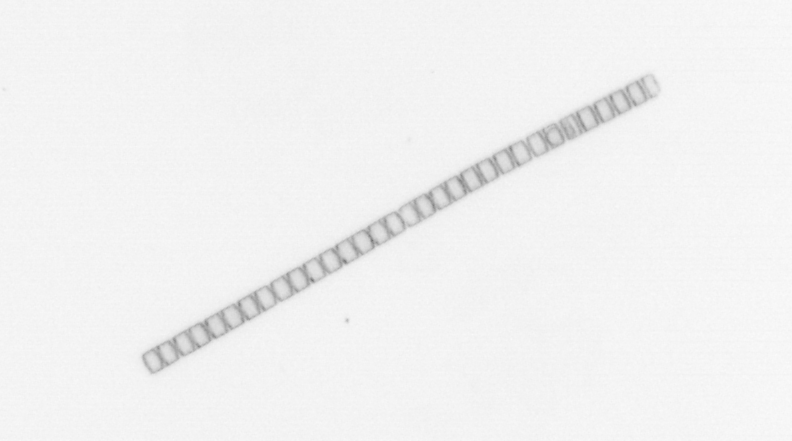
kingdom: Chromista
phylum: Ochrophyta
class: Bacillariophyceae
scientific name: Bacillariophyceae
